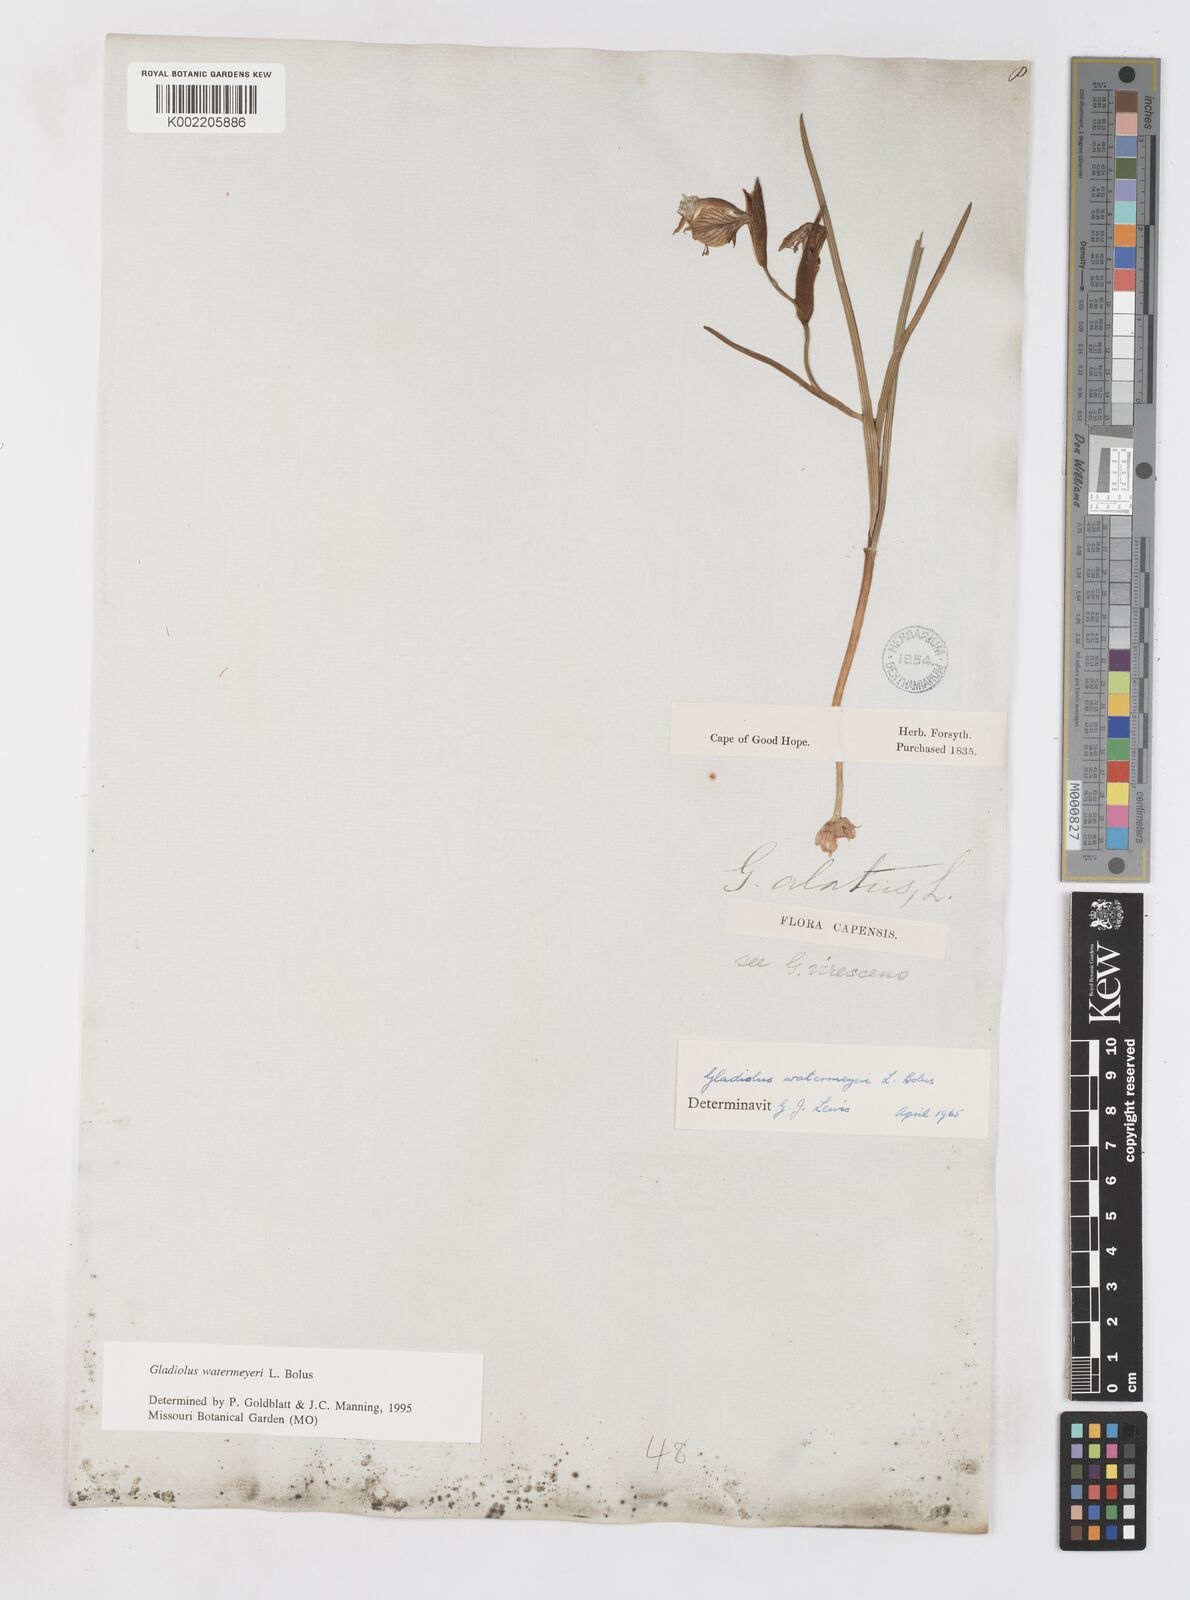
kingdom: Plantae
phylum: Tracheophyta
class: Liliopsida
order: Asparagales
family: Iridaceae
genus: Gladiolus
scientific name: Gladiolus watermeyeri
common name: Sweet kalkoentjie
